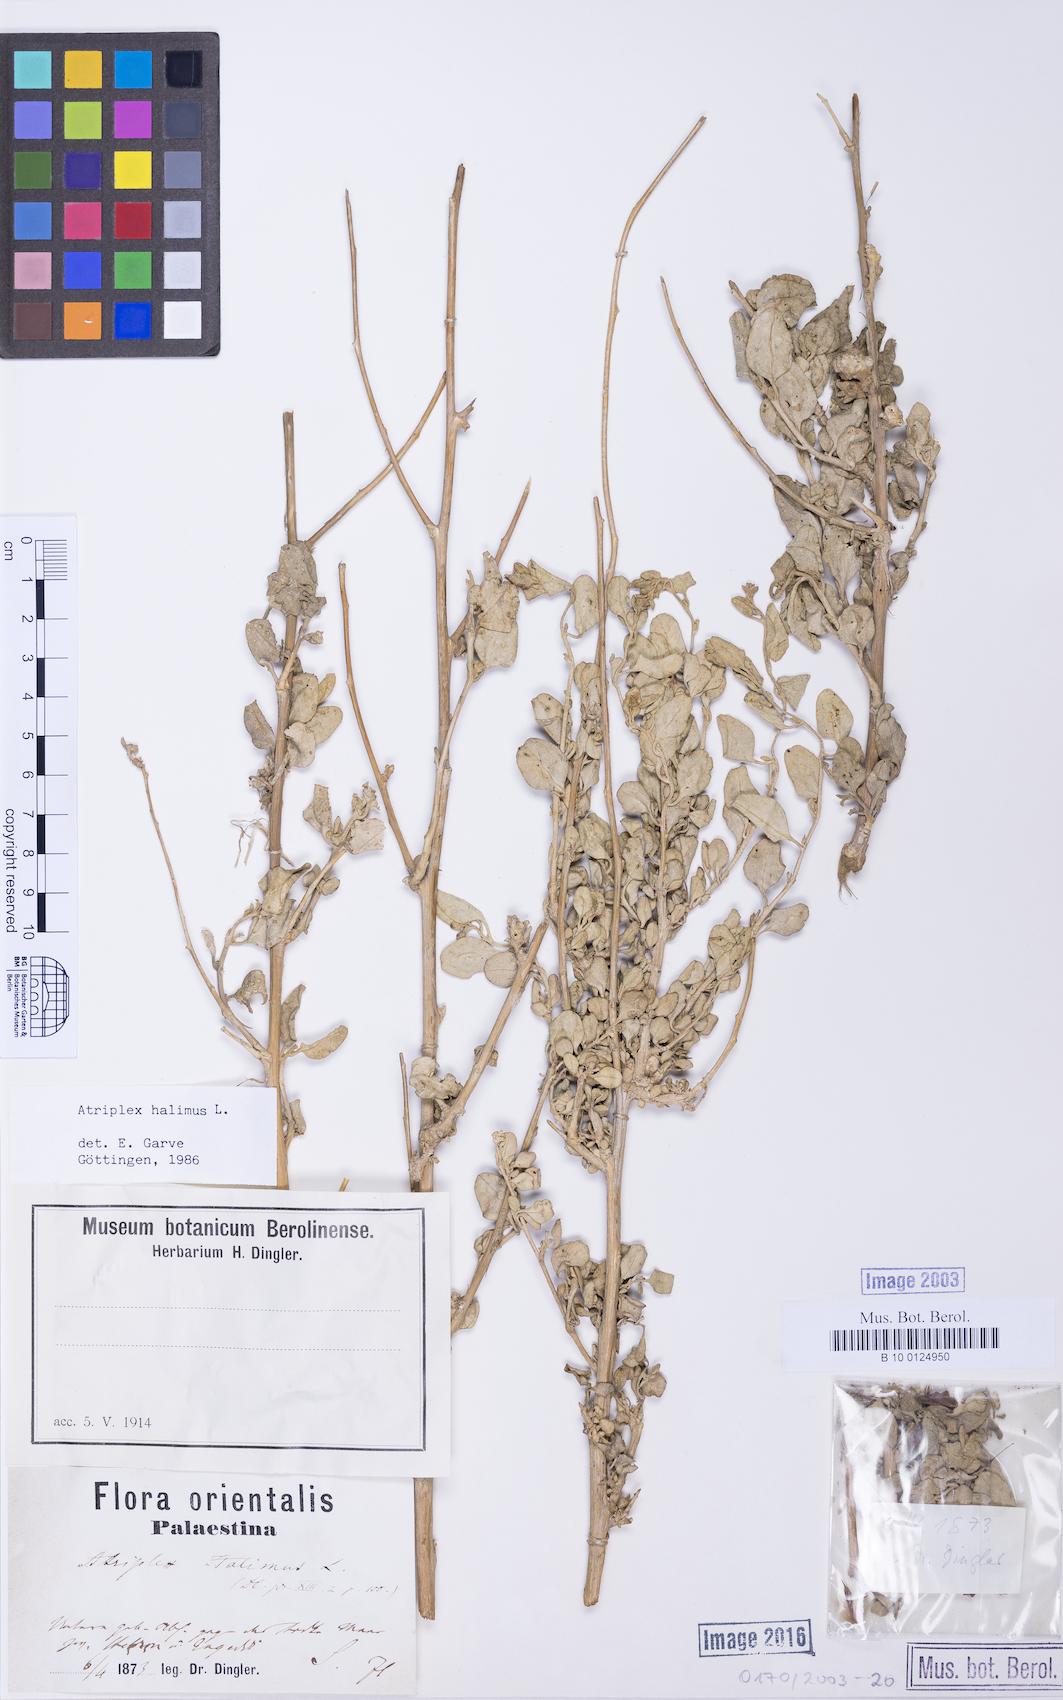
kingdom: Plantae
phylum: Tracheophyta
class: Magnoliopsida
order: Caryophyllales
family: Amaranthaceae
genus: Atriplex
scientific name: Atriplex halimus
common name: Shrubby orache
